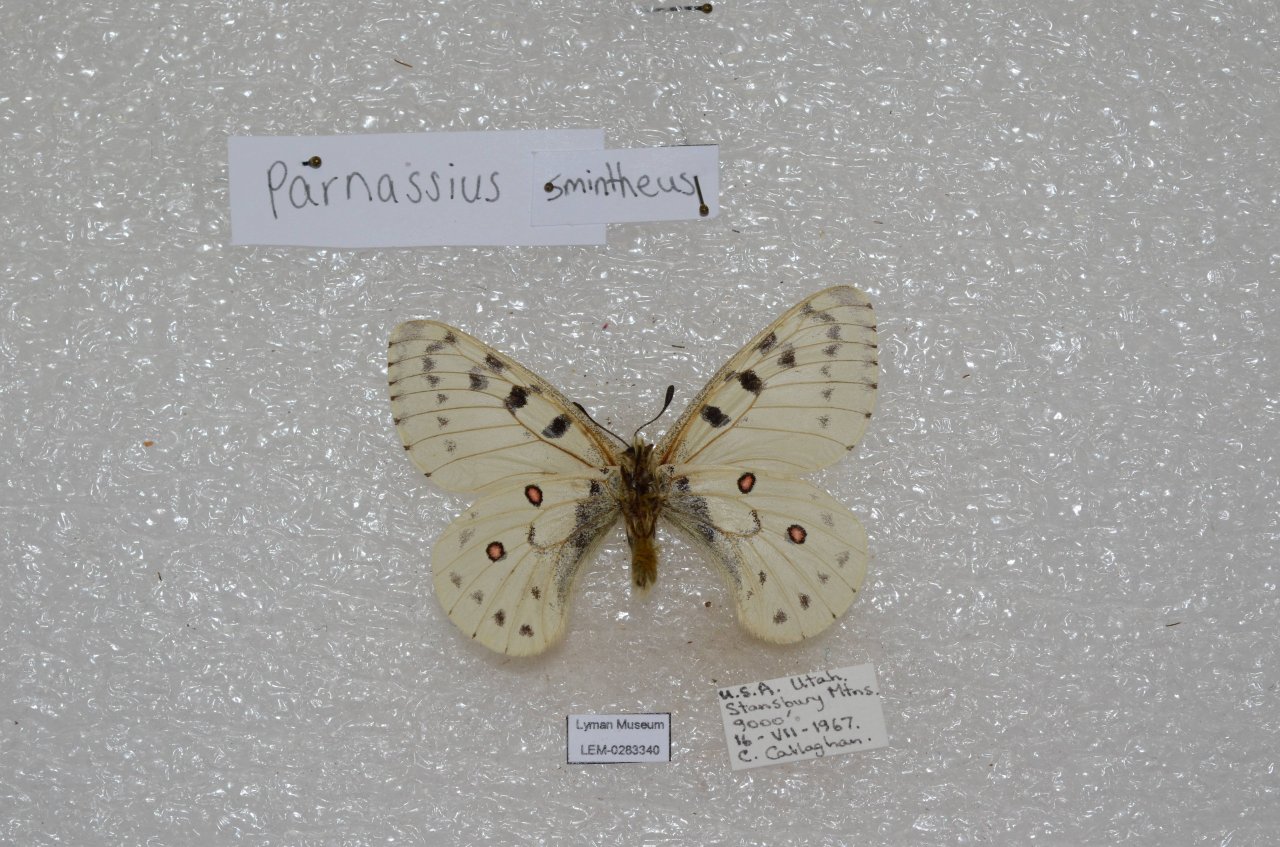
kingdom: Animalia
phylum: Arthropoda
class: Insecta
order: Lepidoptera
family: Papilionidae
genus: Parnassius
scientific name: Parnassius smintheus
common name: Rocky Mountain Parnassian
